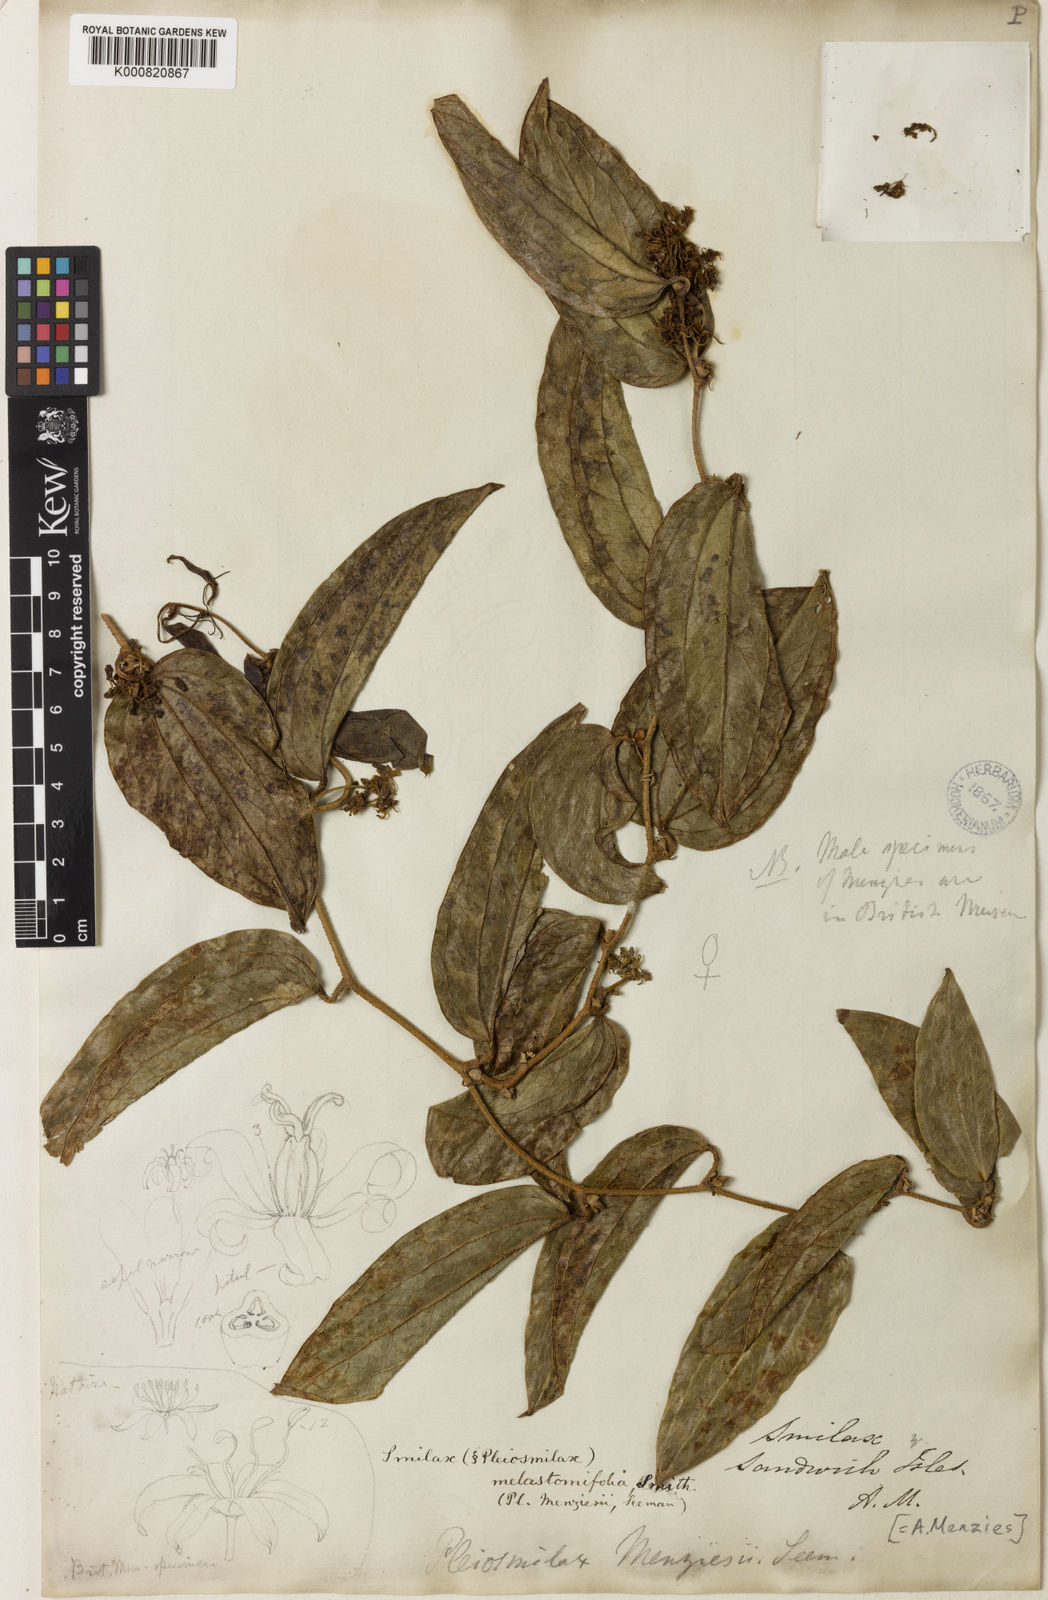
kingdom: Plantae
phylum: Tracheophyta
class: Liliopsida
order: Liliales
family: Smilacaceae
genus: Smilax
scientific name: Smilax melastomifolia
